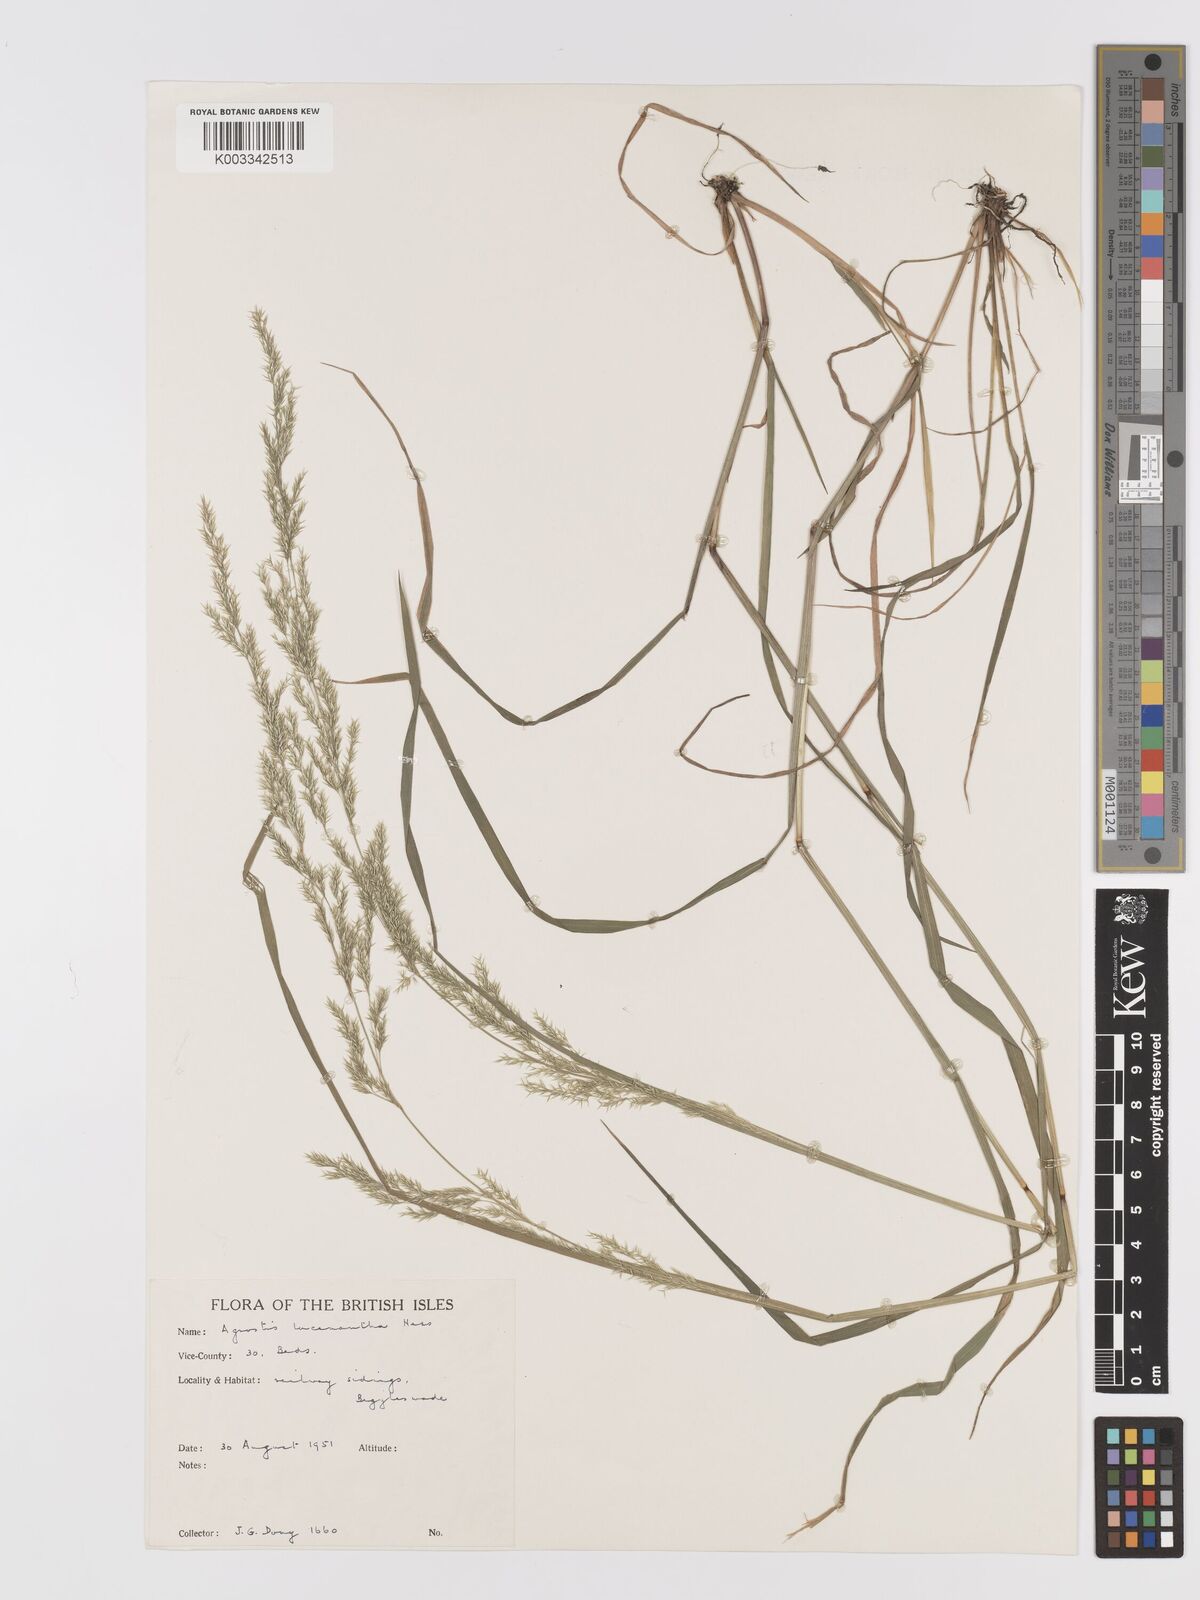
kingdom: Plantae
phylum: Tracheophyta
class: Liliopsida
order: Poales
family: Poaceae
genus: Lachnagrostis
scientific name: Lachnagrostis lachnantha
